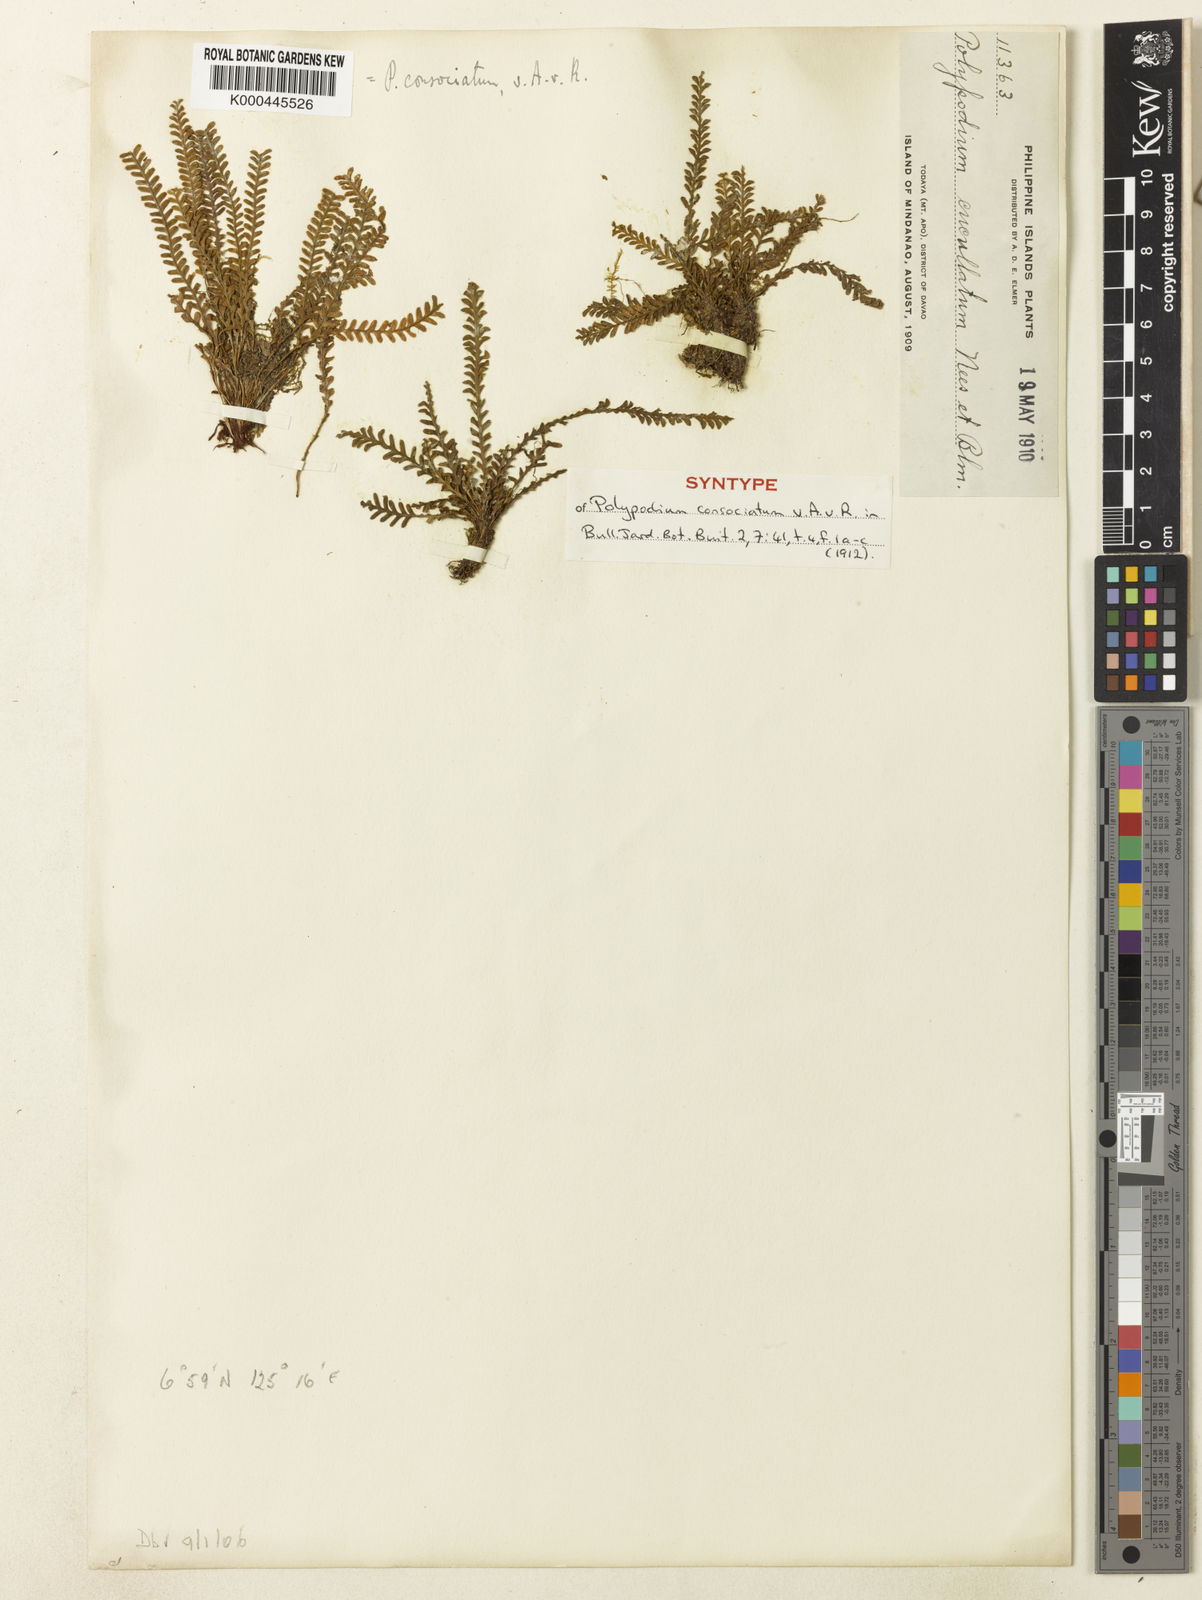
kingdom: Plantae
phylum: Tracheophyta
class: Polypodiopsida
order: Polypodiales
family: Polypodiaceae
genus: Calymmodon
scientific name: Calymmodon gracilis
